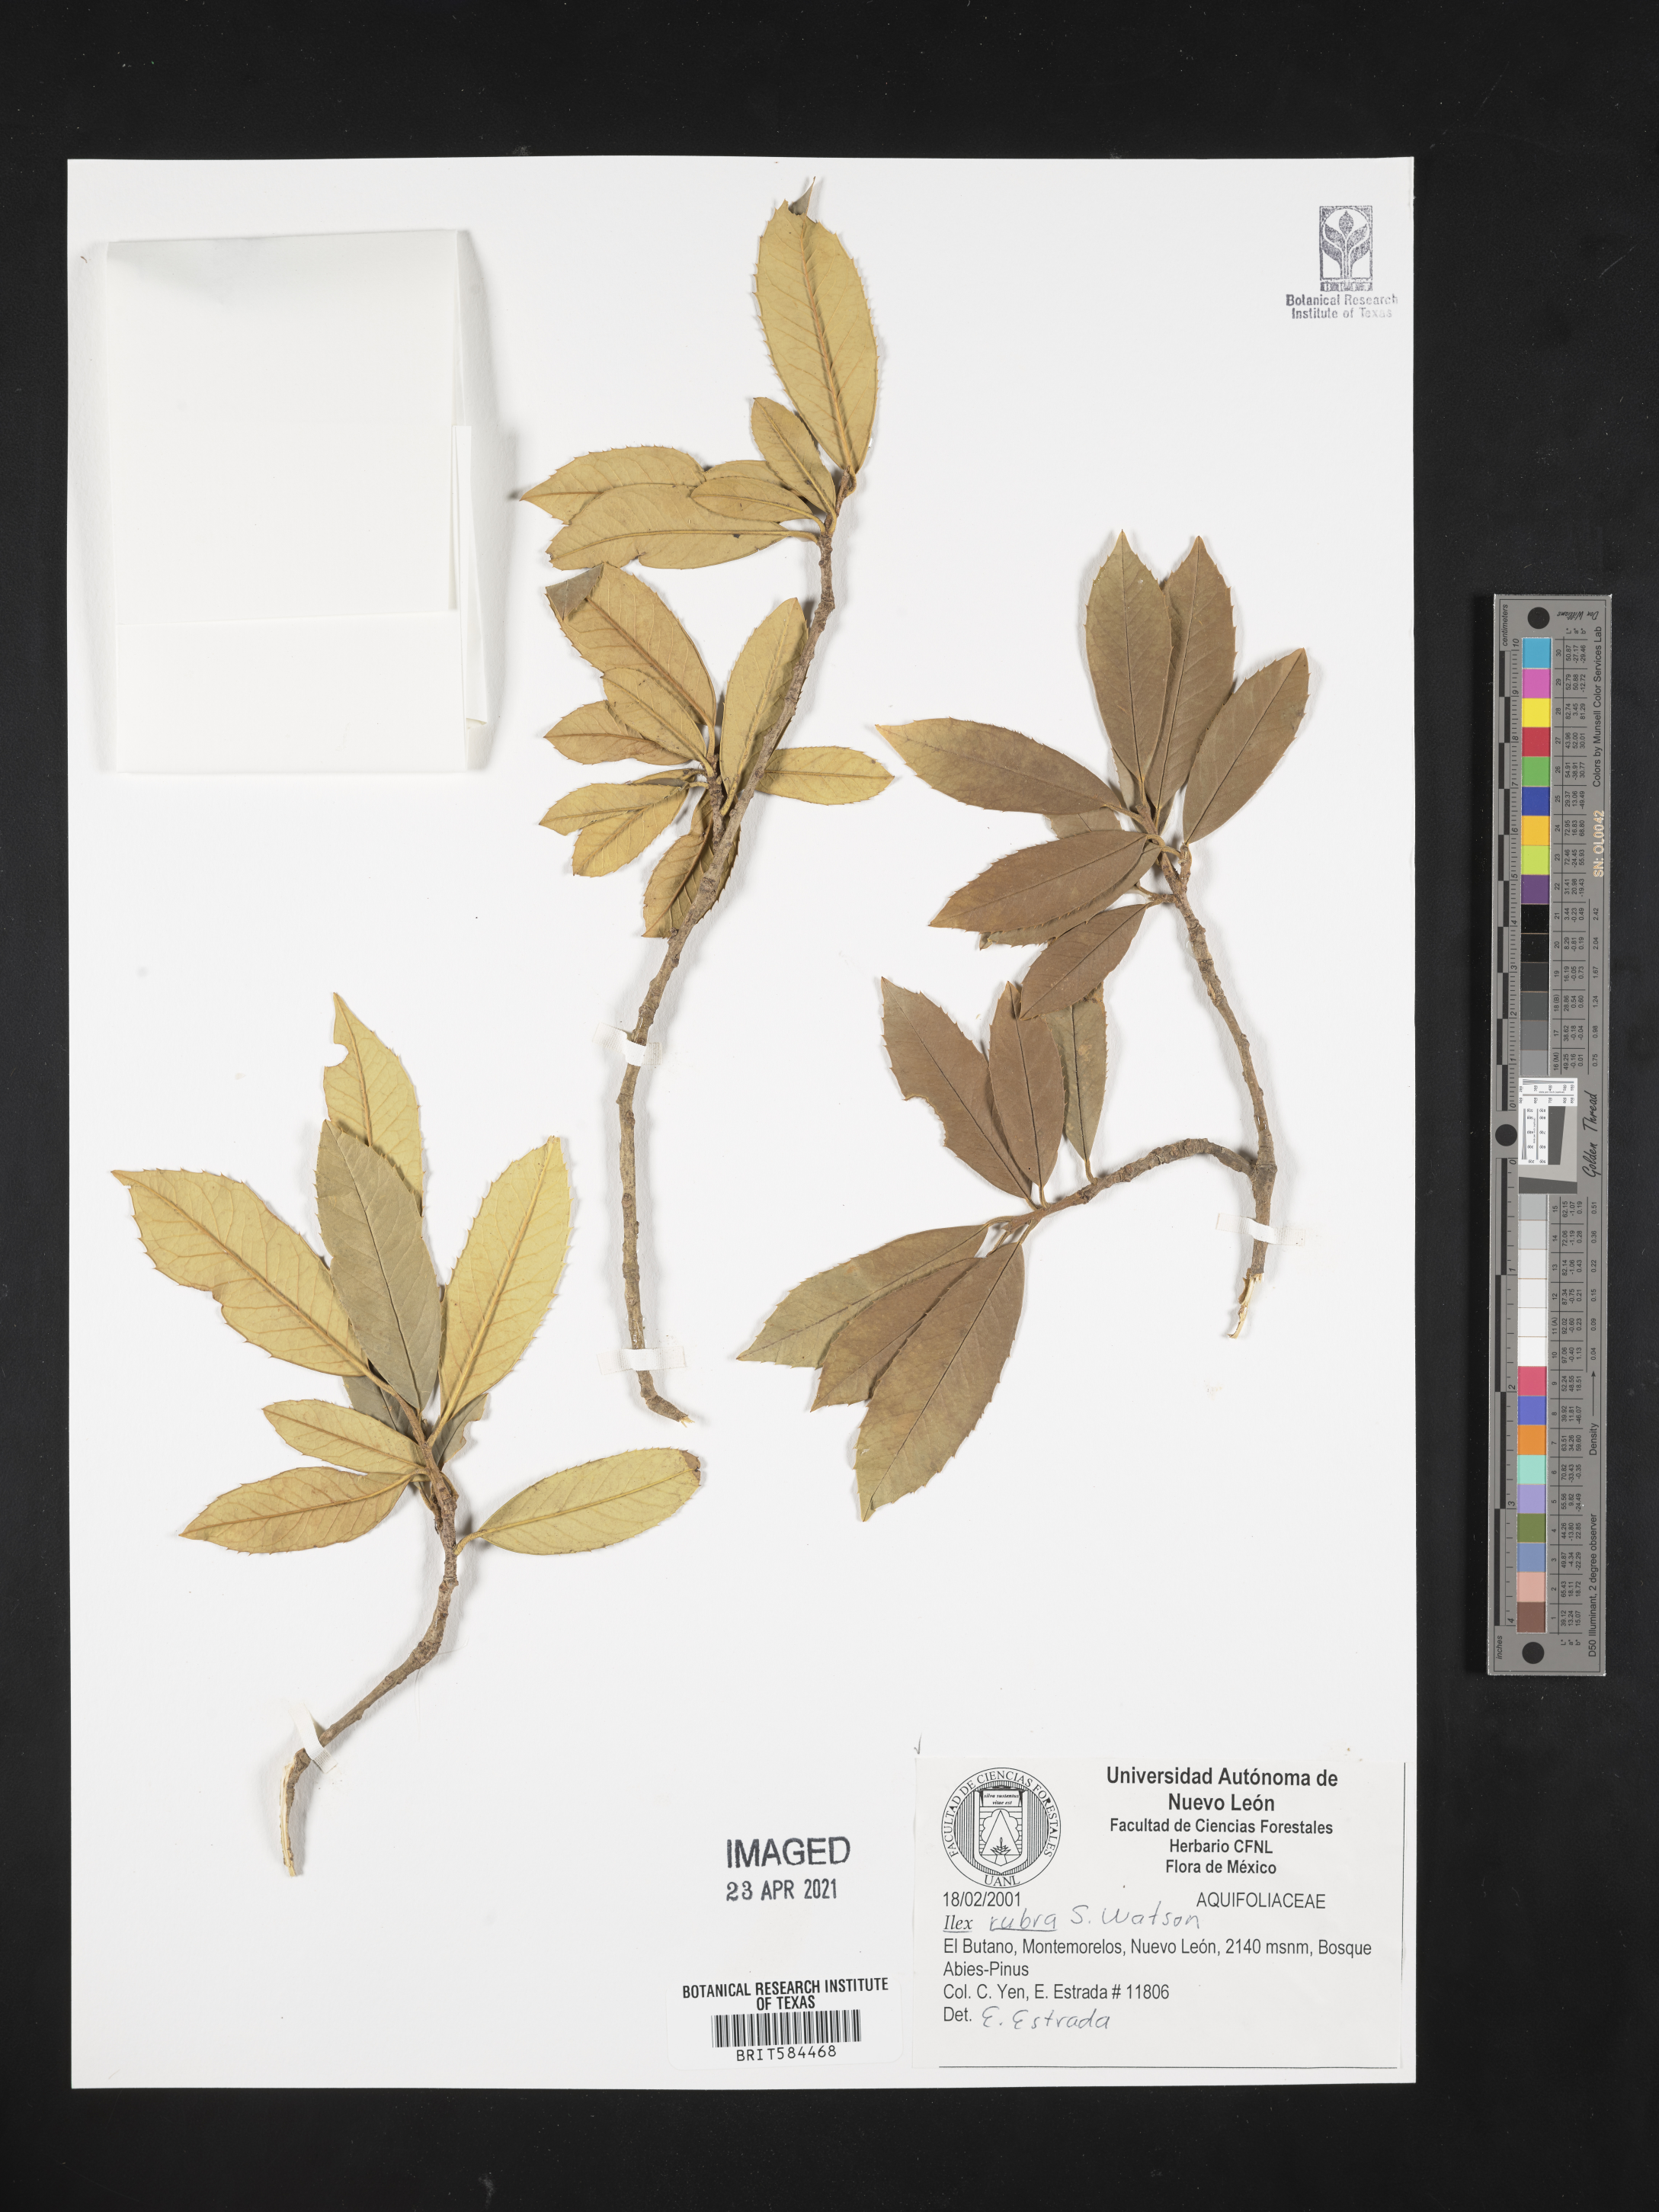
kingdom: Plantae
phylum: Tracheophyta
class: Magnoliopsida
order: Aquifoliales
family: Aquifoliaceae
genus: Ilex
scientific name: Ilex rubra
